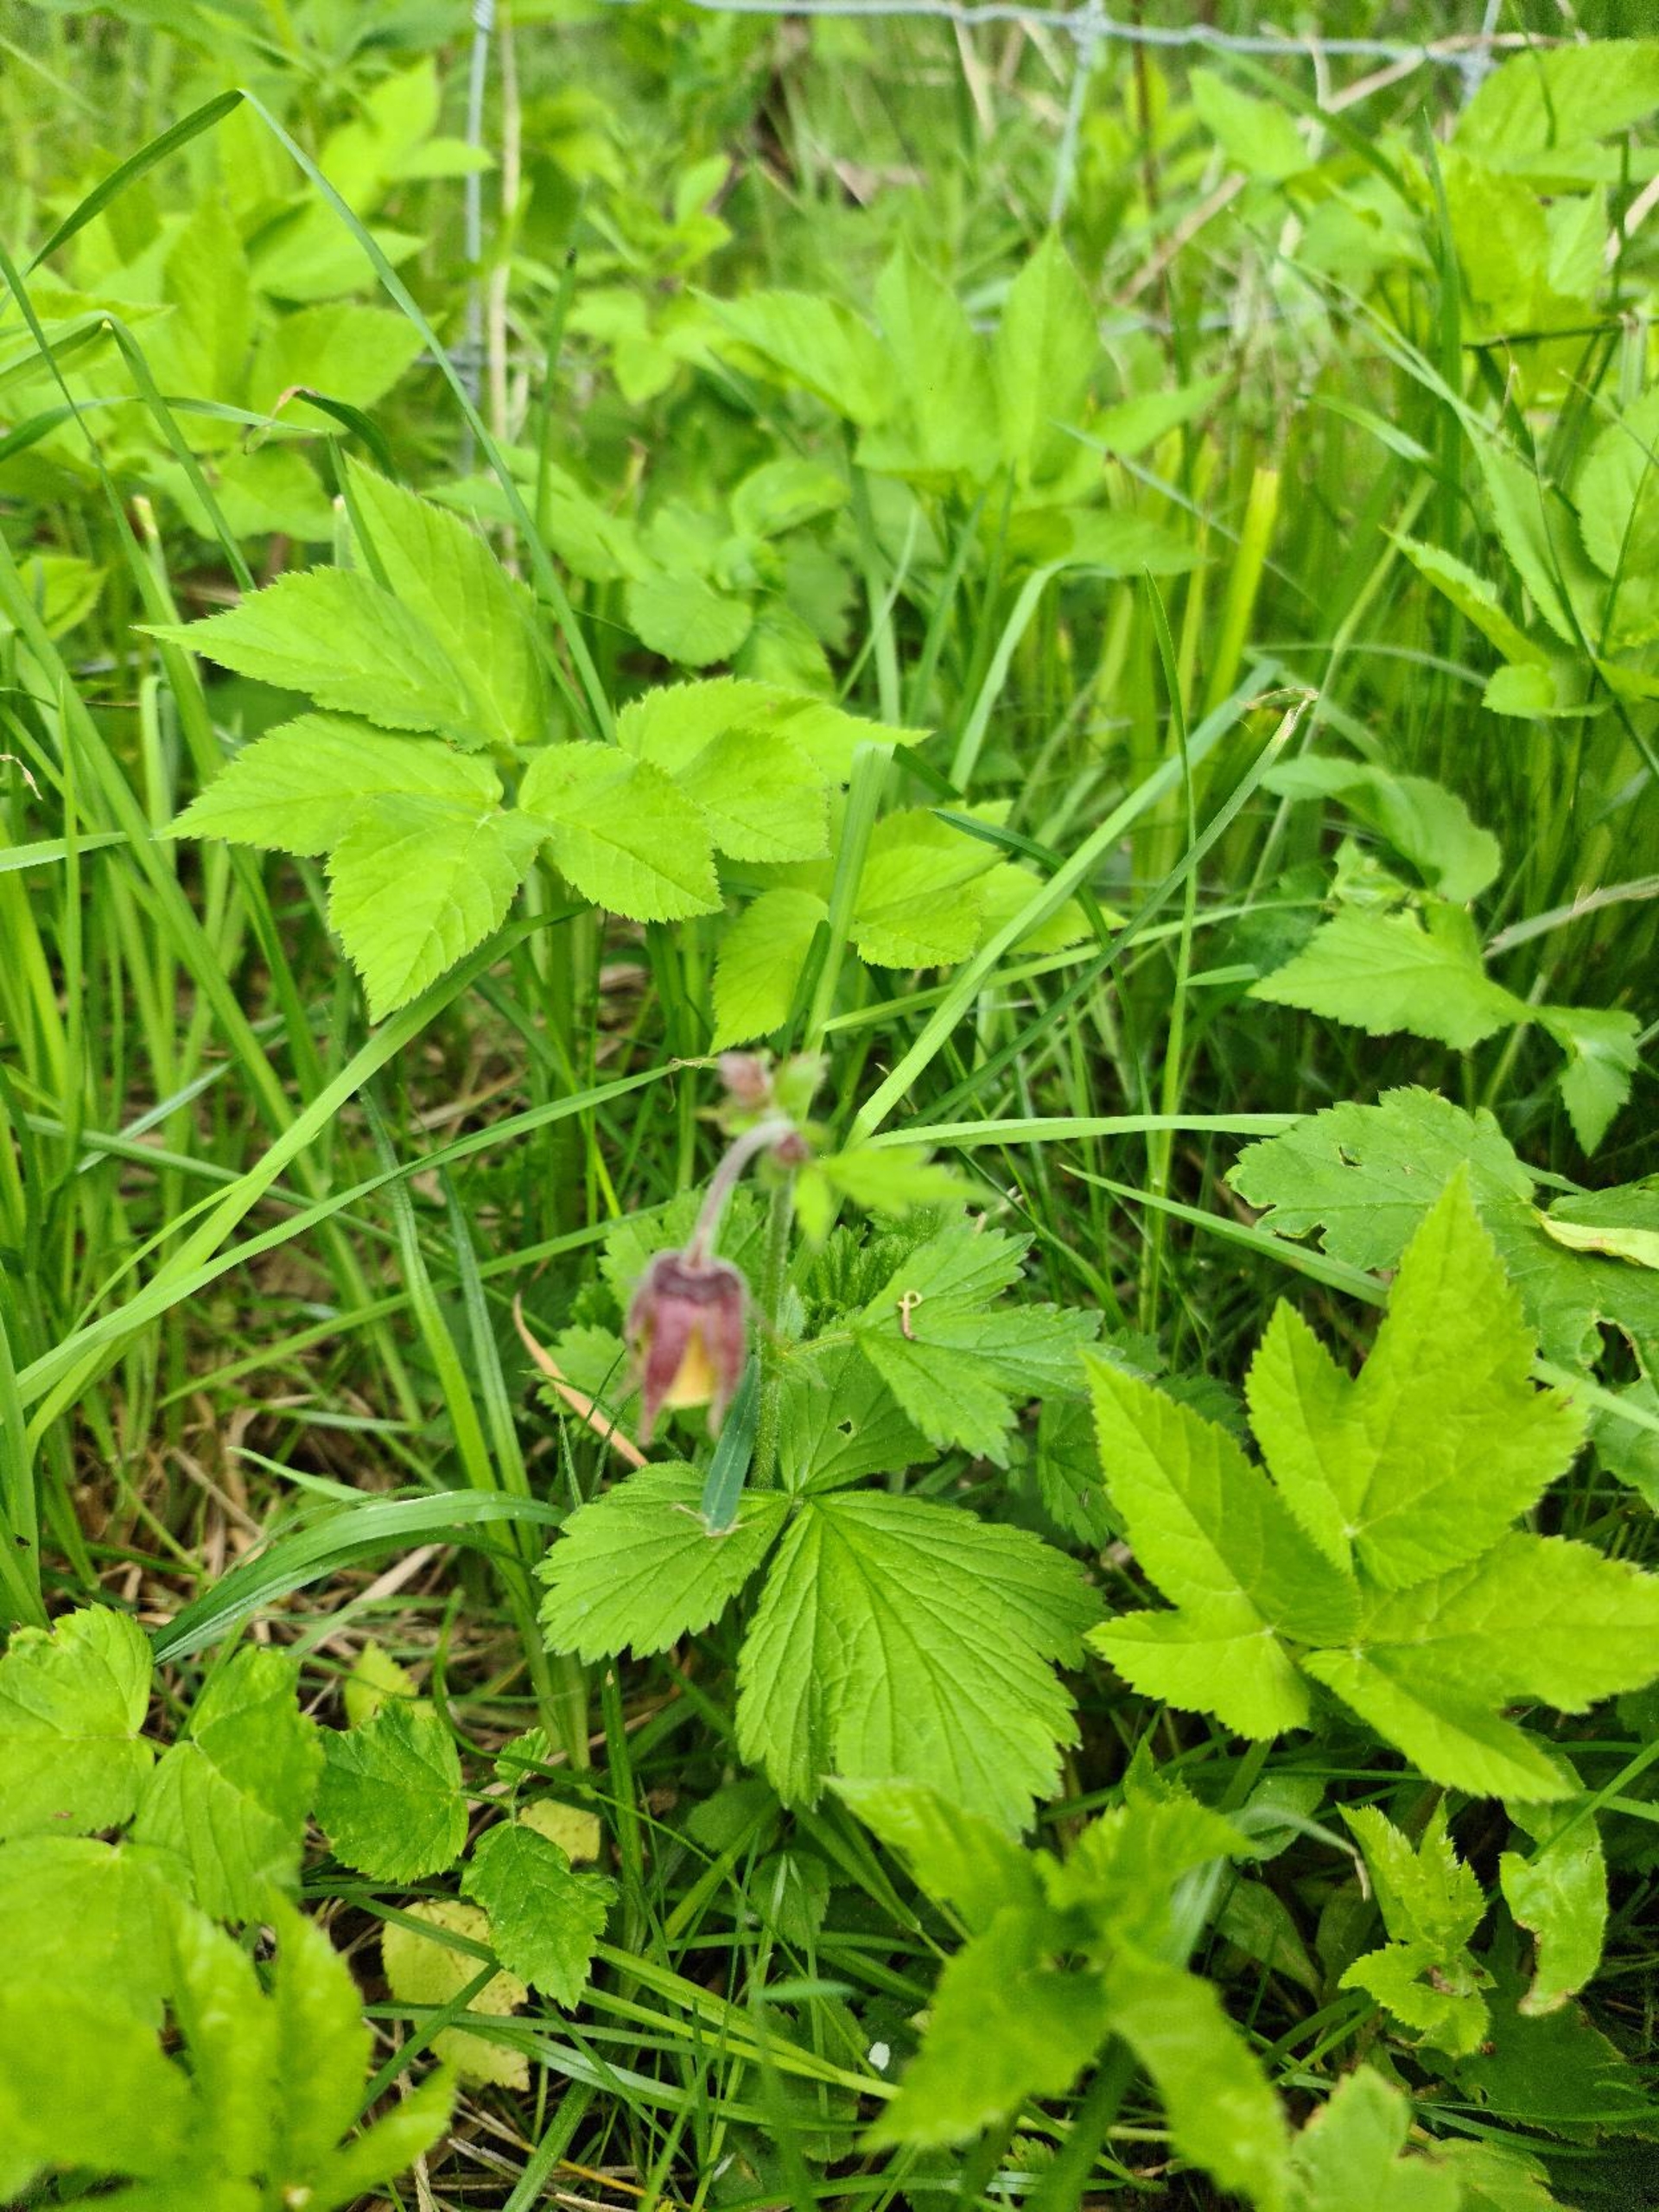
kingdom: Plantae
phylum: Tracheophyta
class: Magnoliopsida
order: Rosales
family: Rosaceae
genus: Geum
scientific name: Geum rivale
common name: Eng-nellikerod
